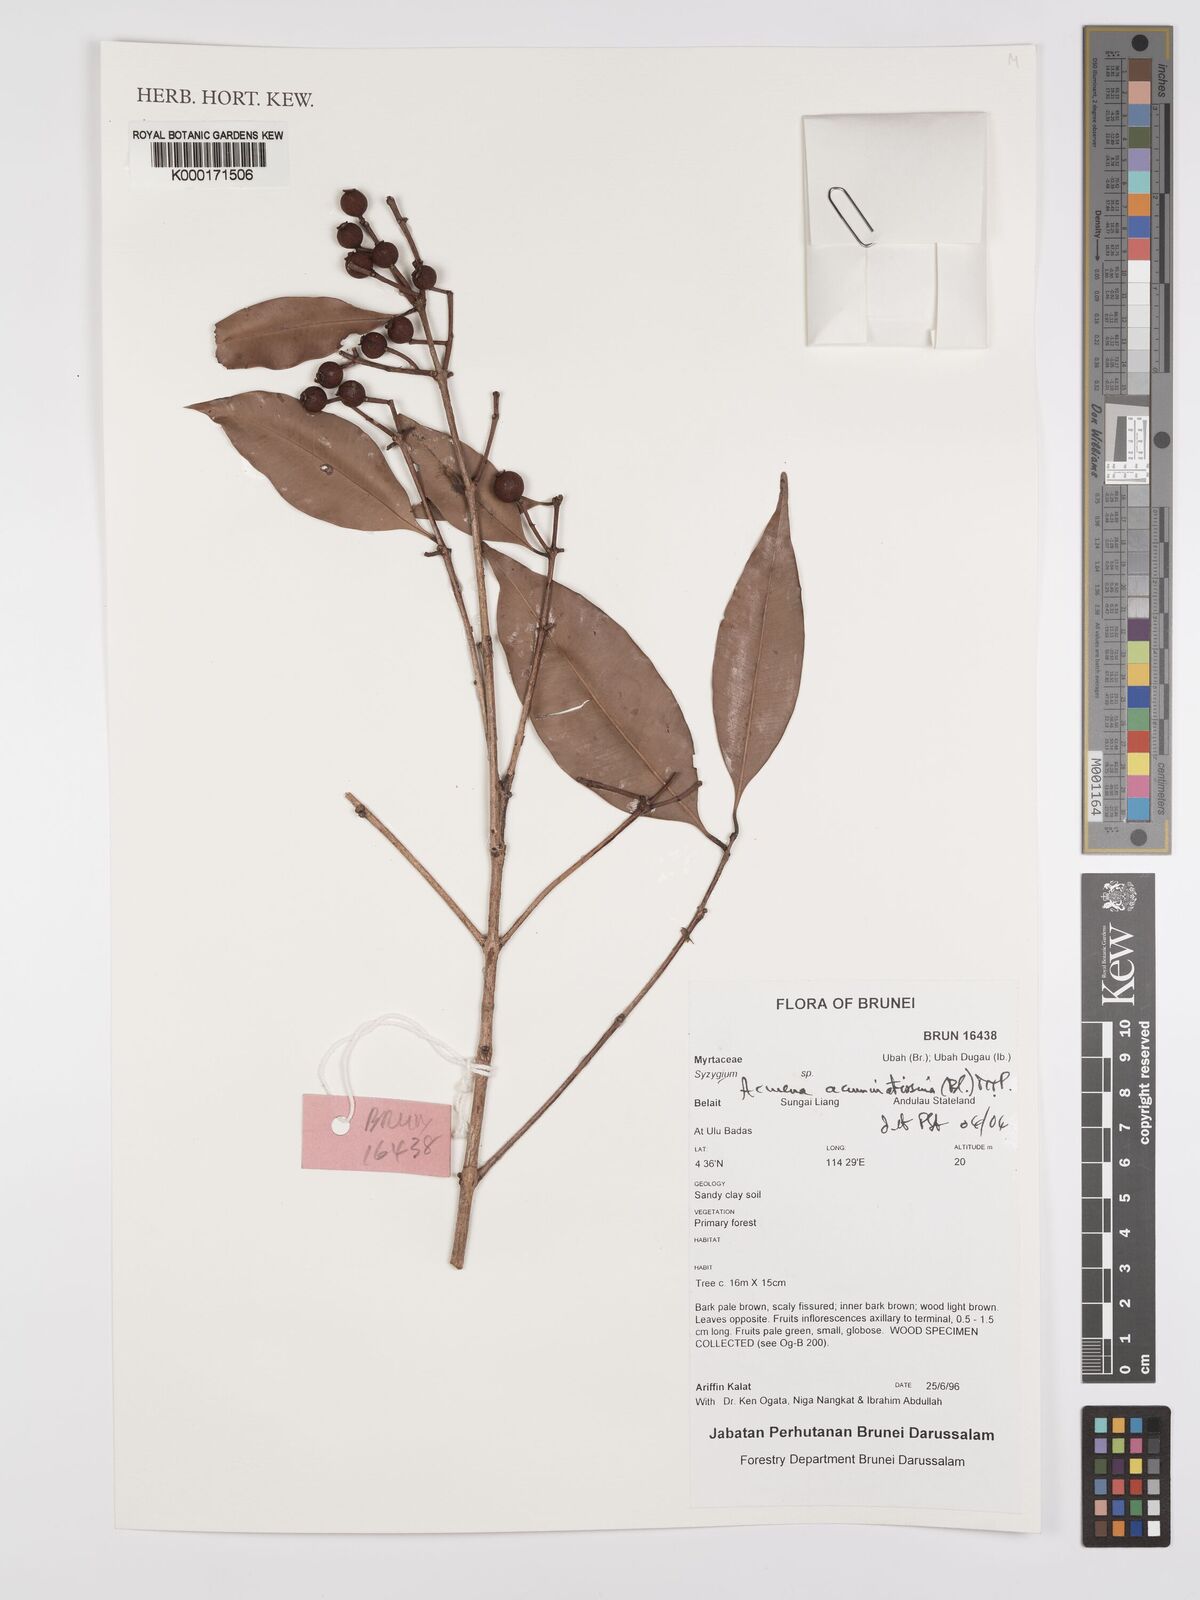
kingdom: Plantae
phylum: Tracheophyta
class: Magnoliopsida
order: Myrtales
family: Myrtaceae
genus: Syzygium
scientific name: Syzygium acuminatissimum
